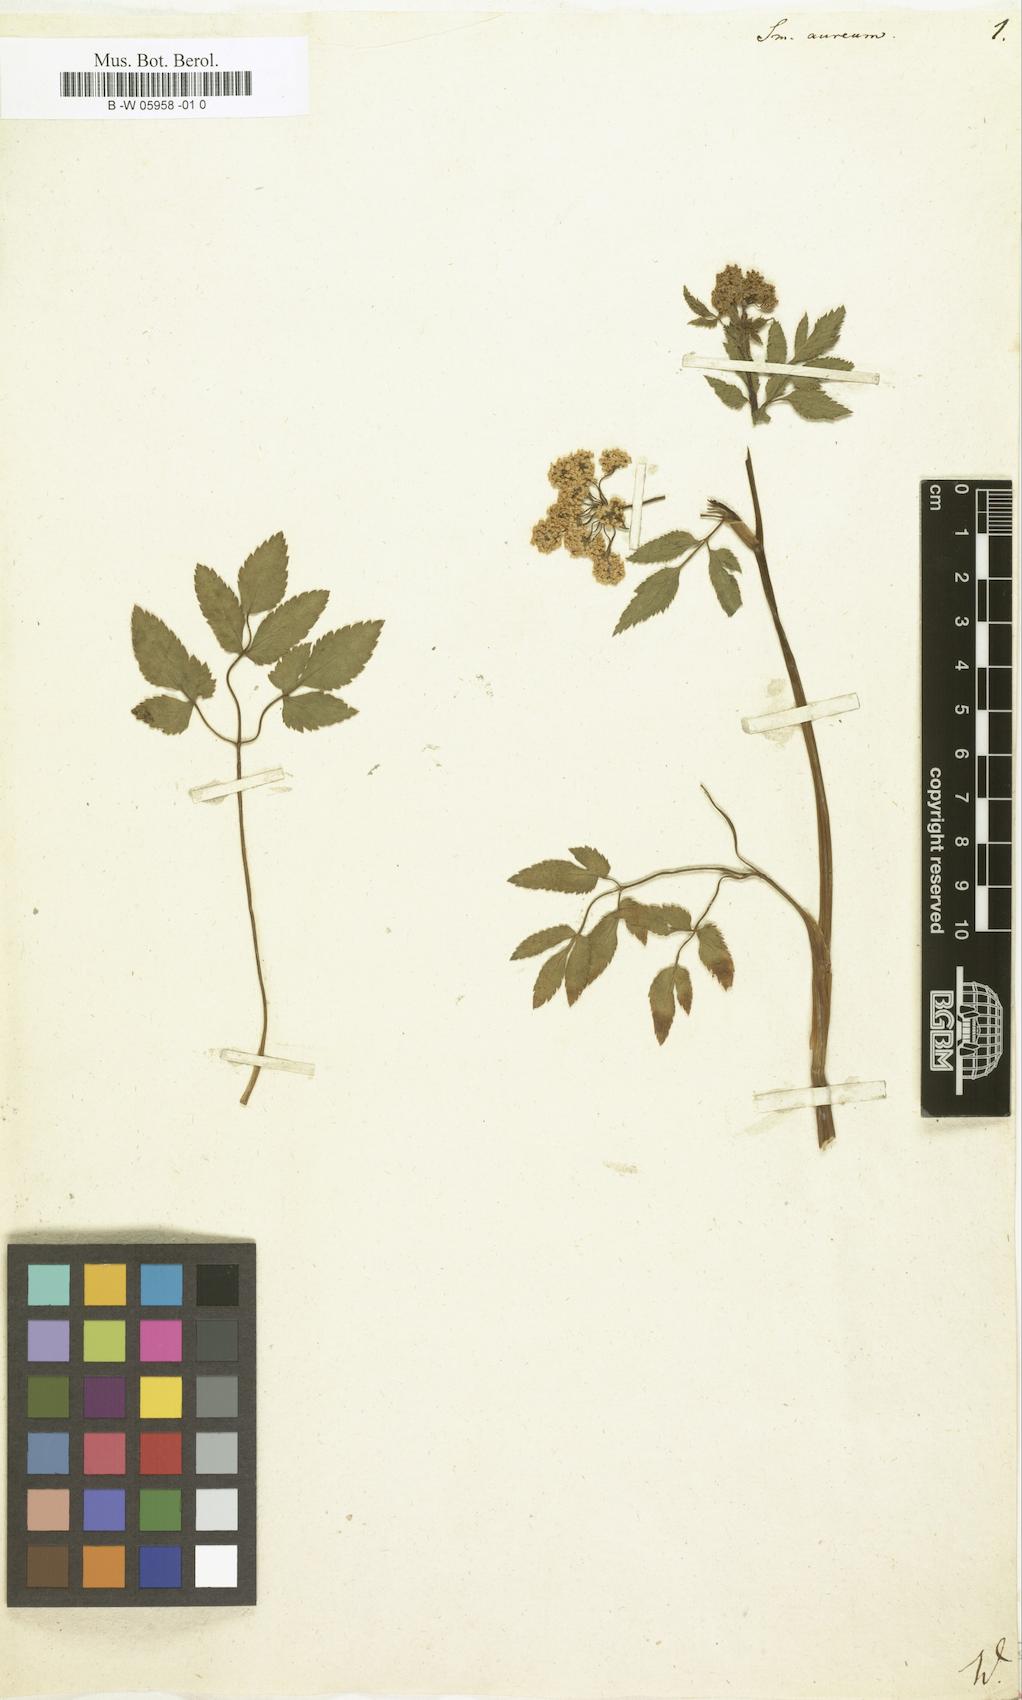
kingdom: Plantae
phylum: Tracheophyta
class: Magnoliopsida
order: Apiales
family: Apiaceae
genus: Zizia
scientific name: Zizia aurea
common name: Golden alexanders
